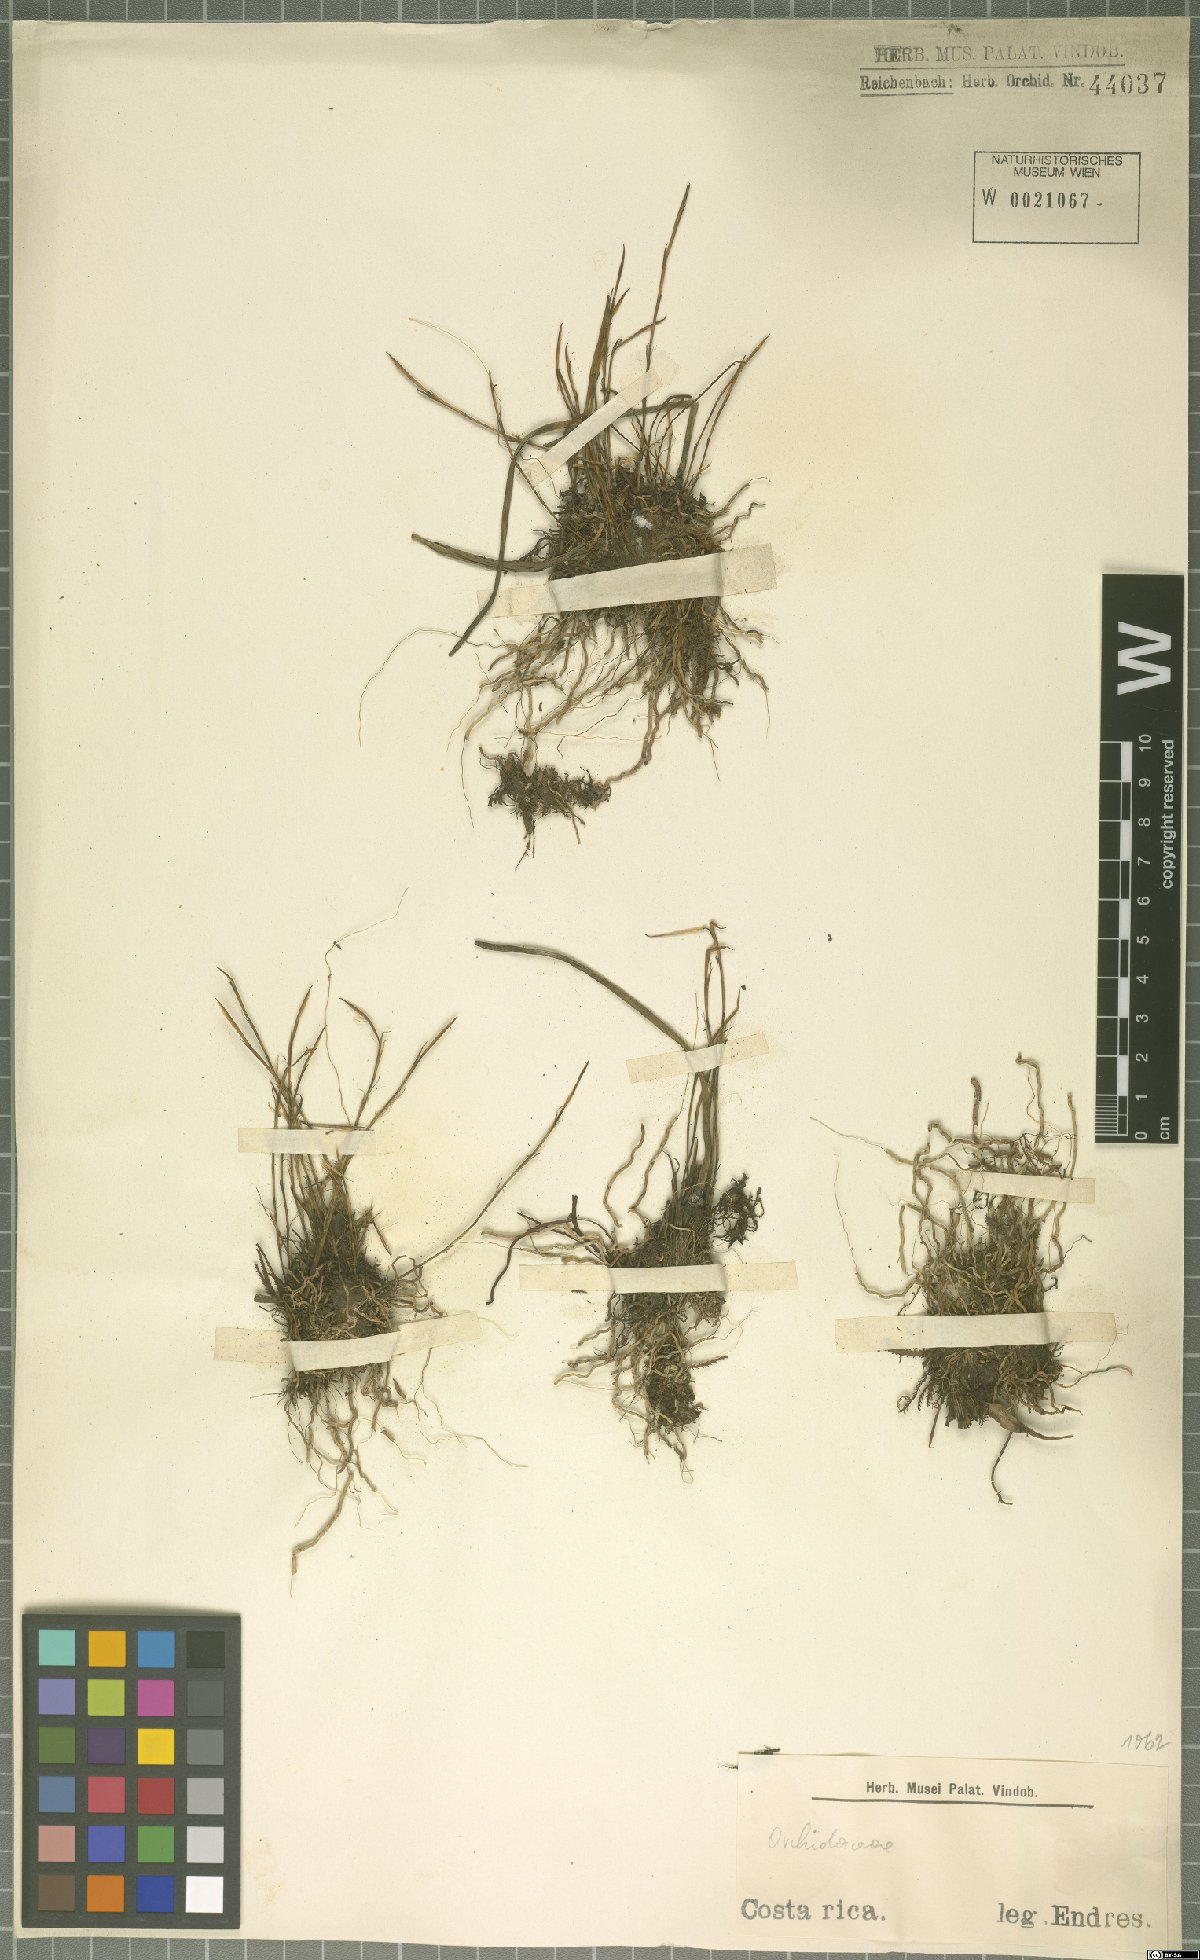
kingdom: Plantae
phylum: Tracheophyta
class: Liliopsida
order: Asparagales
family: Orchidaceae
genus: Maxillaria
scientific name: Maxillaria gracillima
